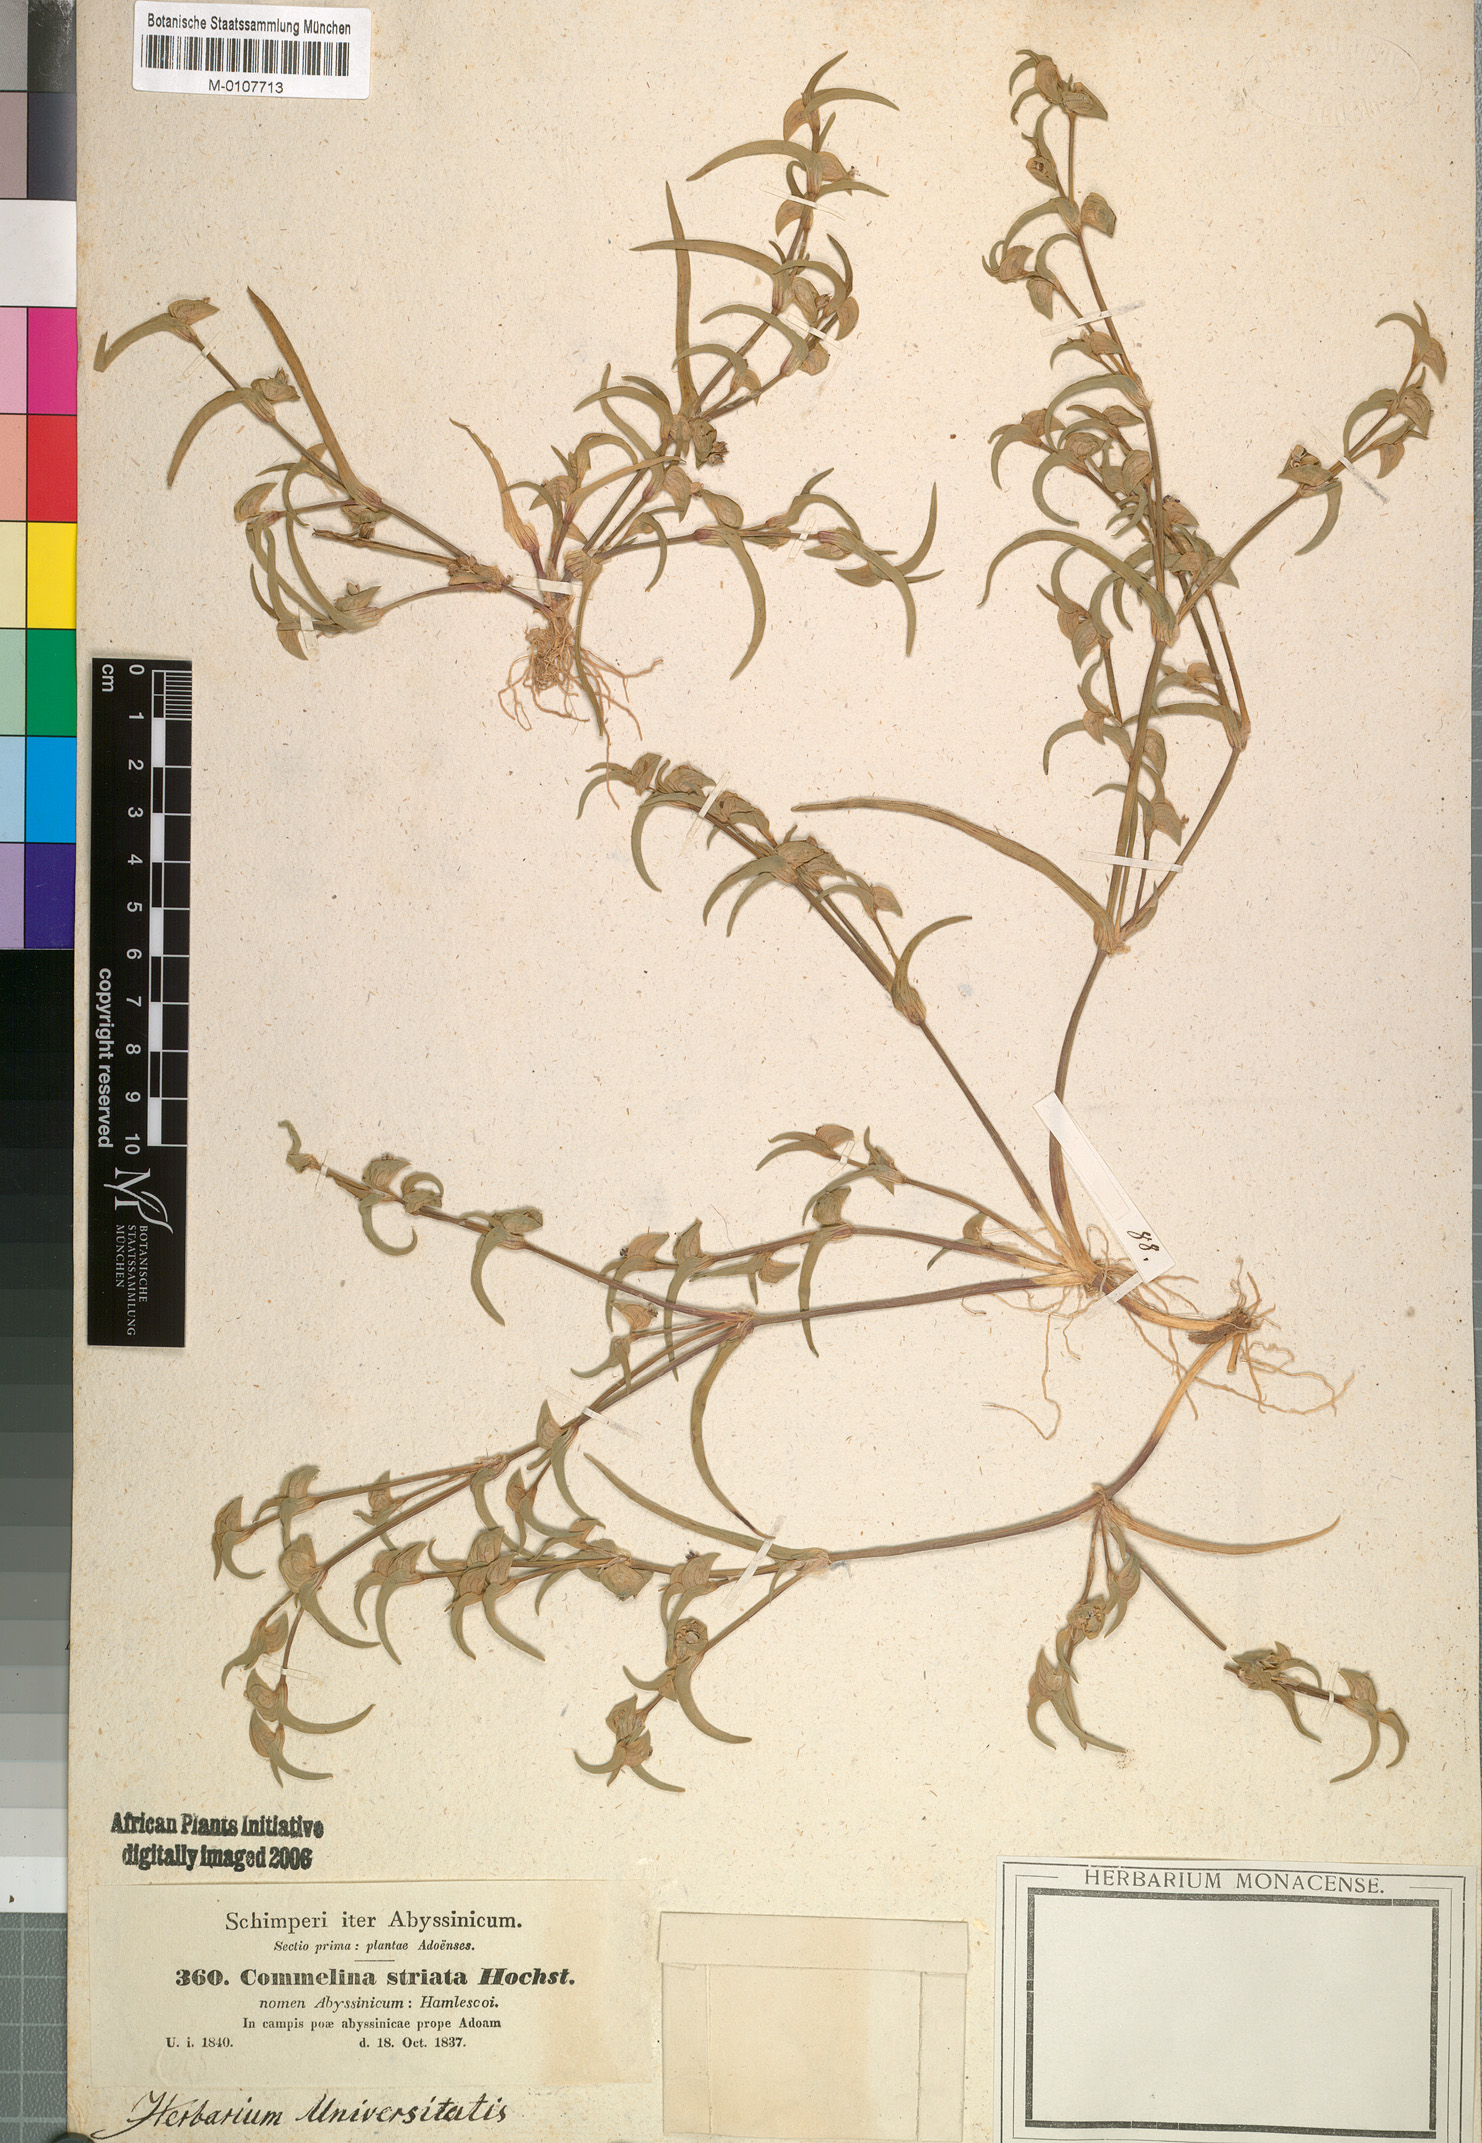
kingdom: Plantae
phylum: Tracheophyta
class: Liliopsida
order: Commelinales
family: Commelinaceae
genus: Commelina
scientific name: Commelina subulata
